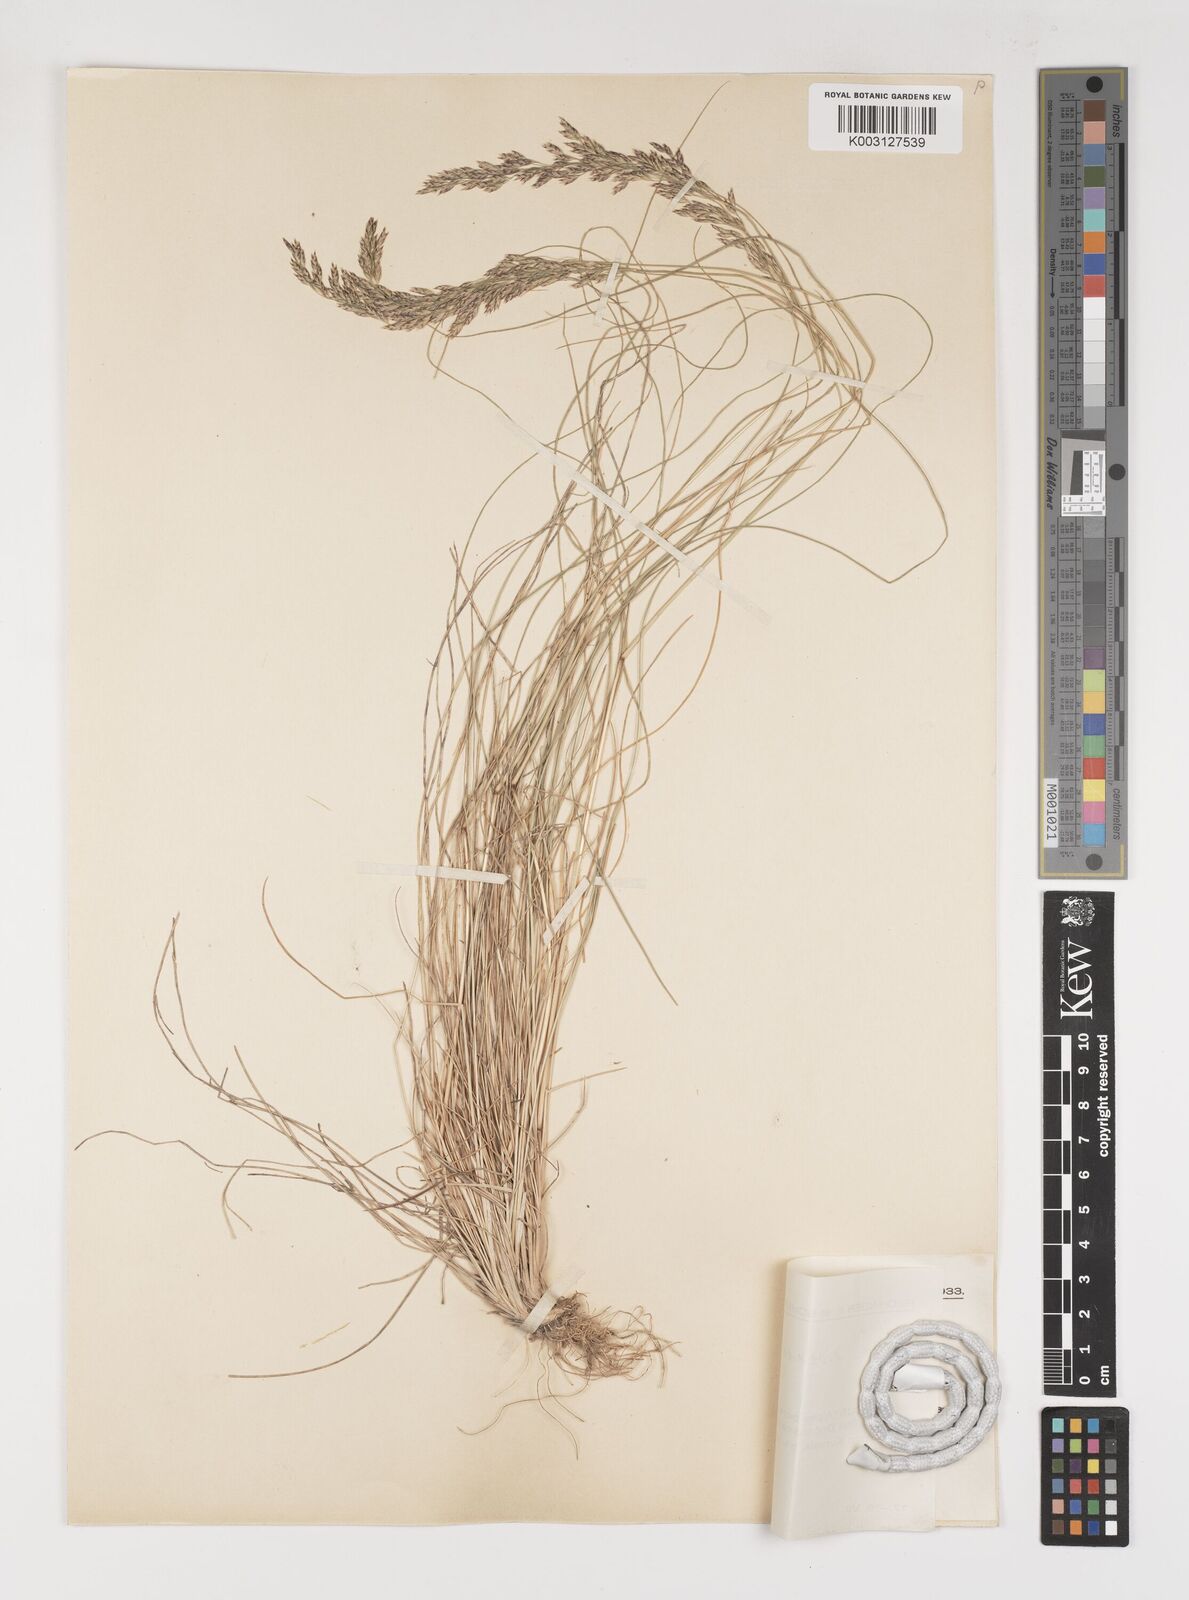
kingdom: Plantae
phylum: Tracheophyta
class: Liliopsida
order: Poales
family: Poaceae
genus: Bellardiochloa
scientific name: Bellardiochloa variegata
